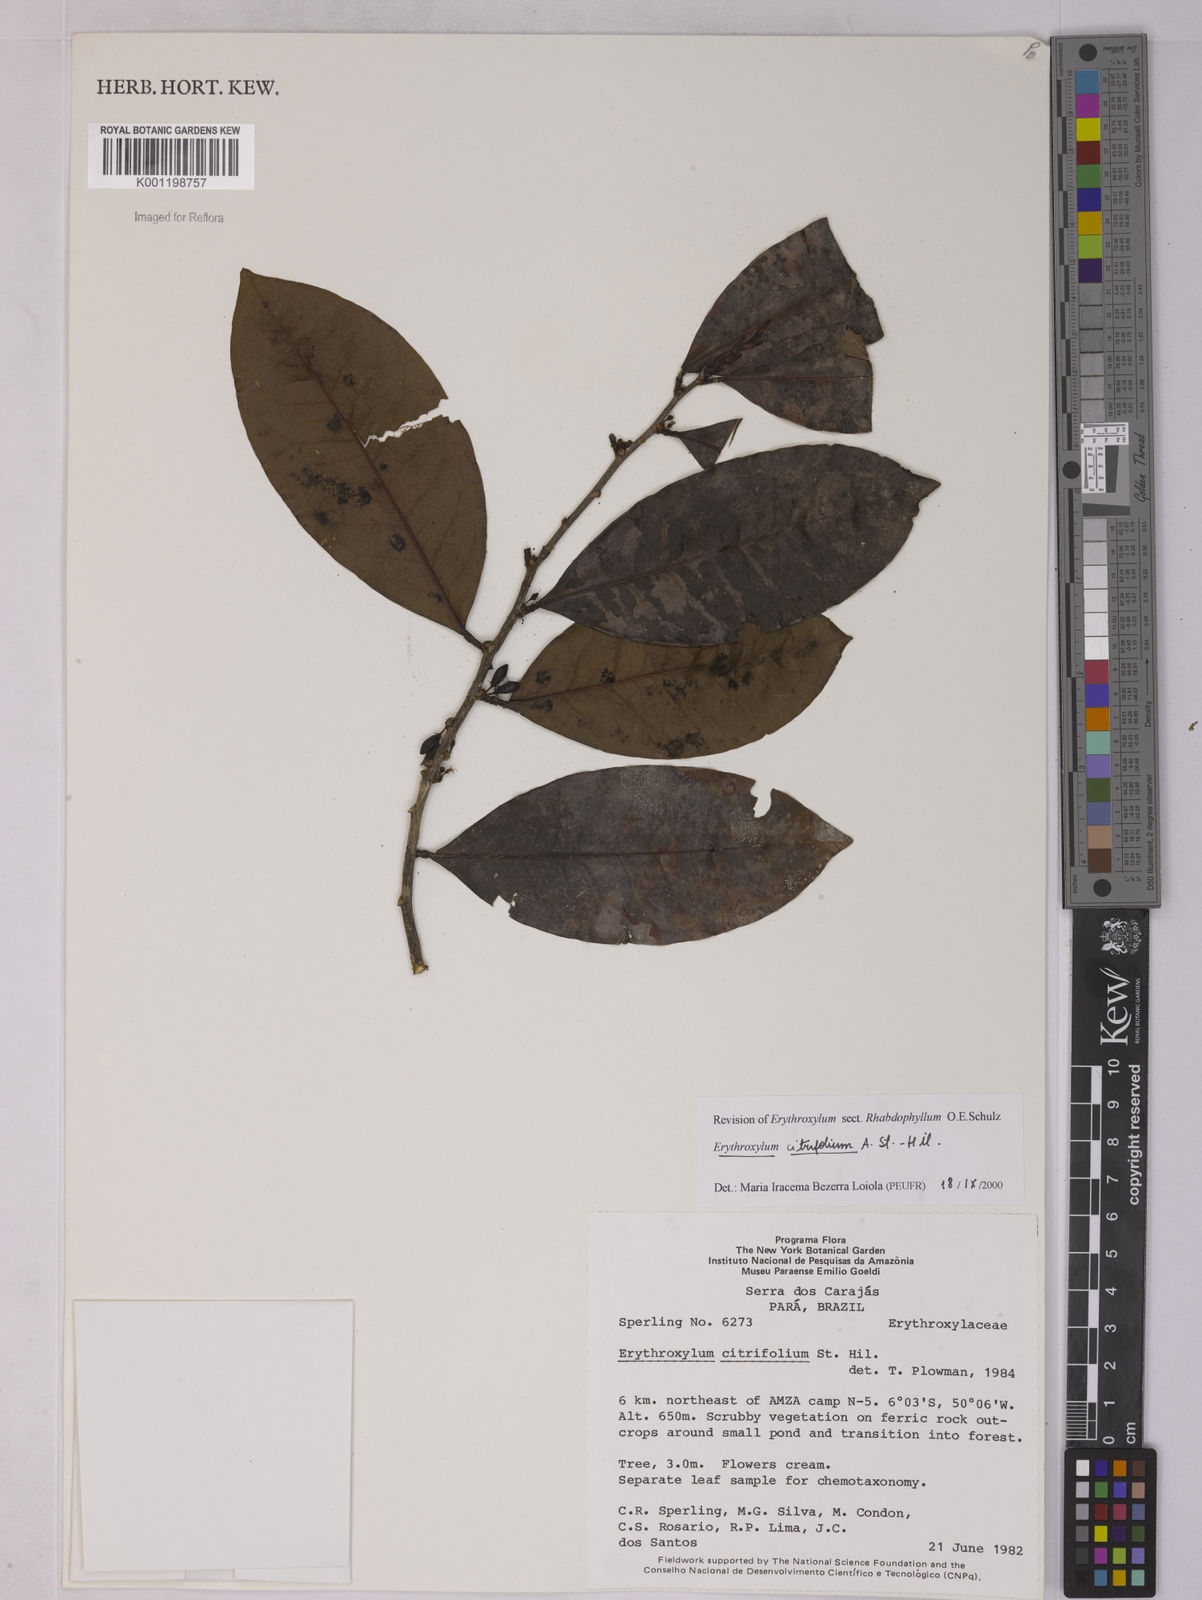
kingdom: Plantae
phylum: Tracheophyta
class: Magnoliopsida
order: Malpighiales
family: Erythroxylaceae
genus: Erythroxylum
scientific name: Erythroxylum citrifolium
